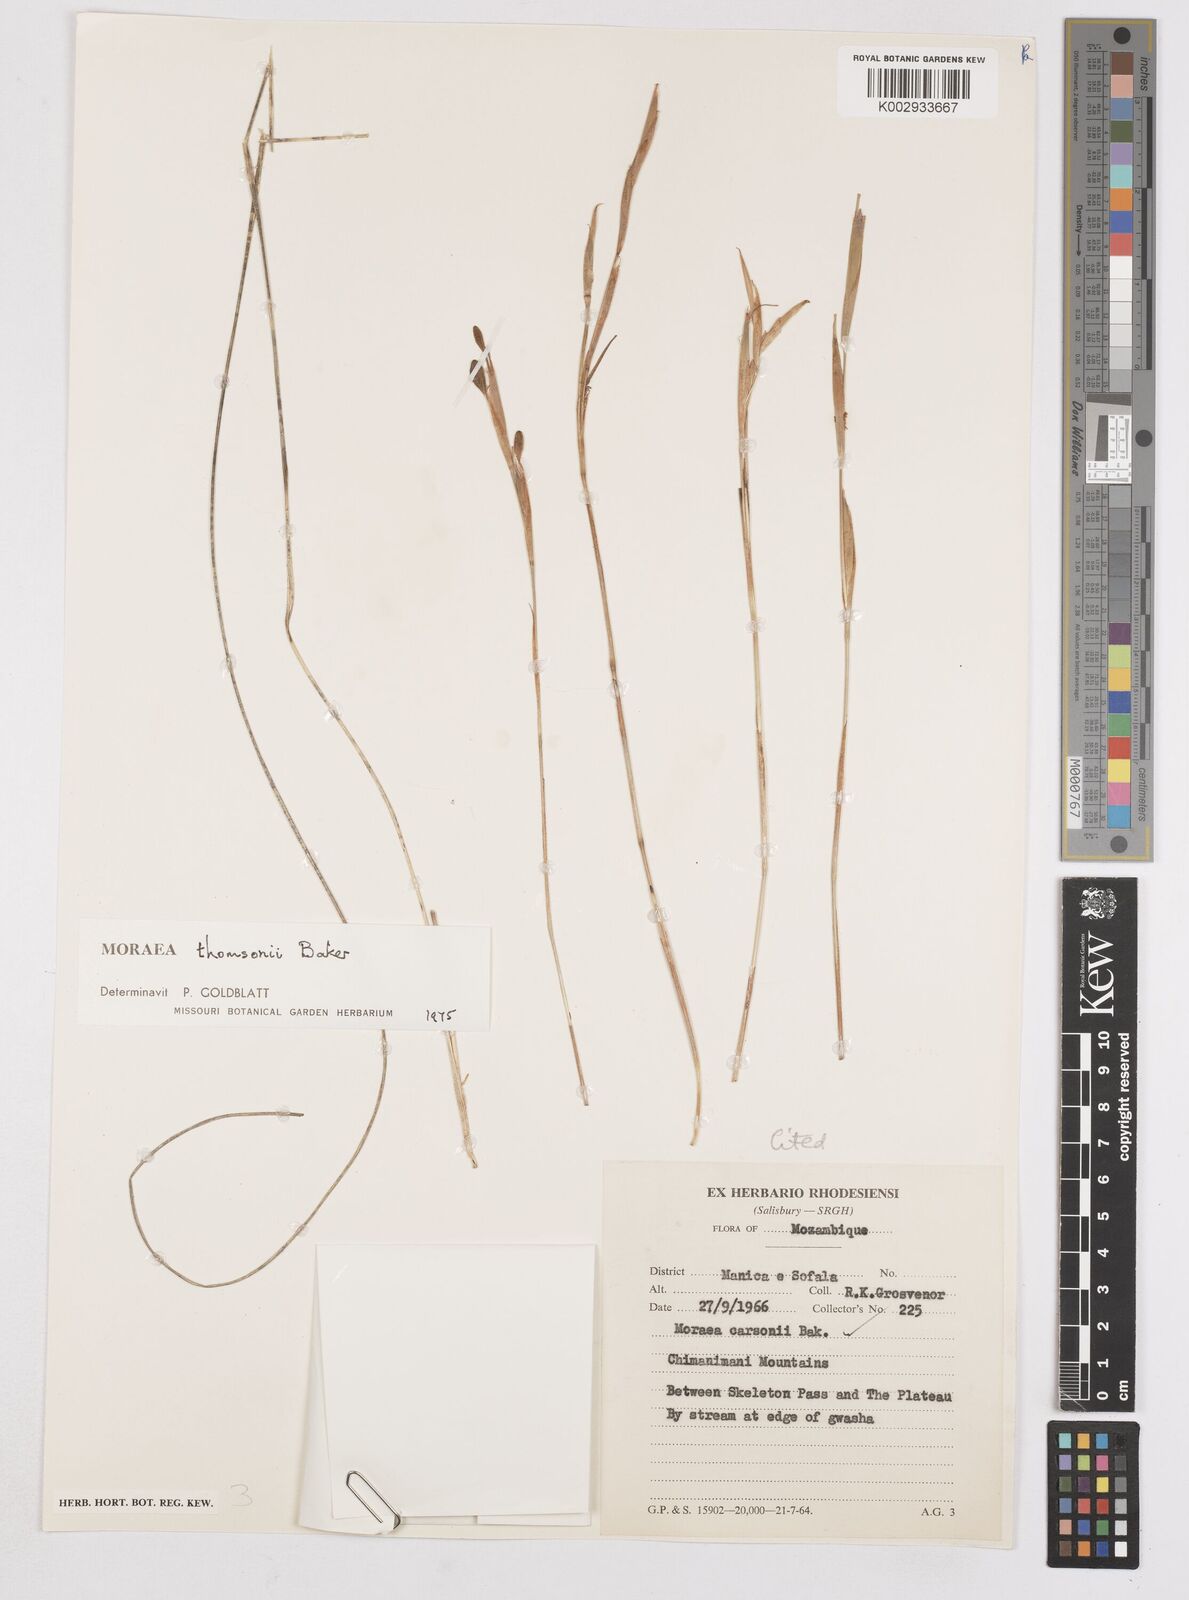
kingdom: Plantae
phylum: Tracheophyta
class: Liliopsida
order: Asparagales
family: Iridaceae
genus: Moraea
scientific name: Moraea thomsonii
